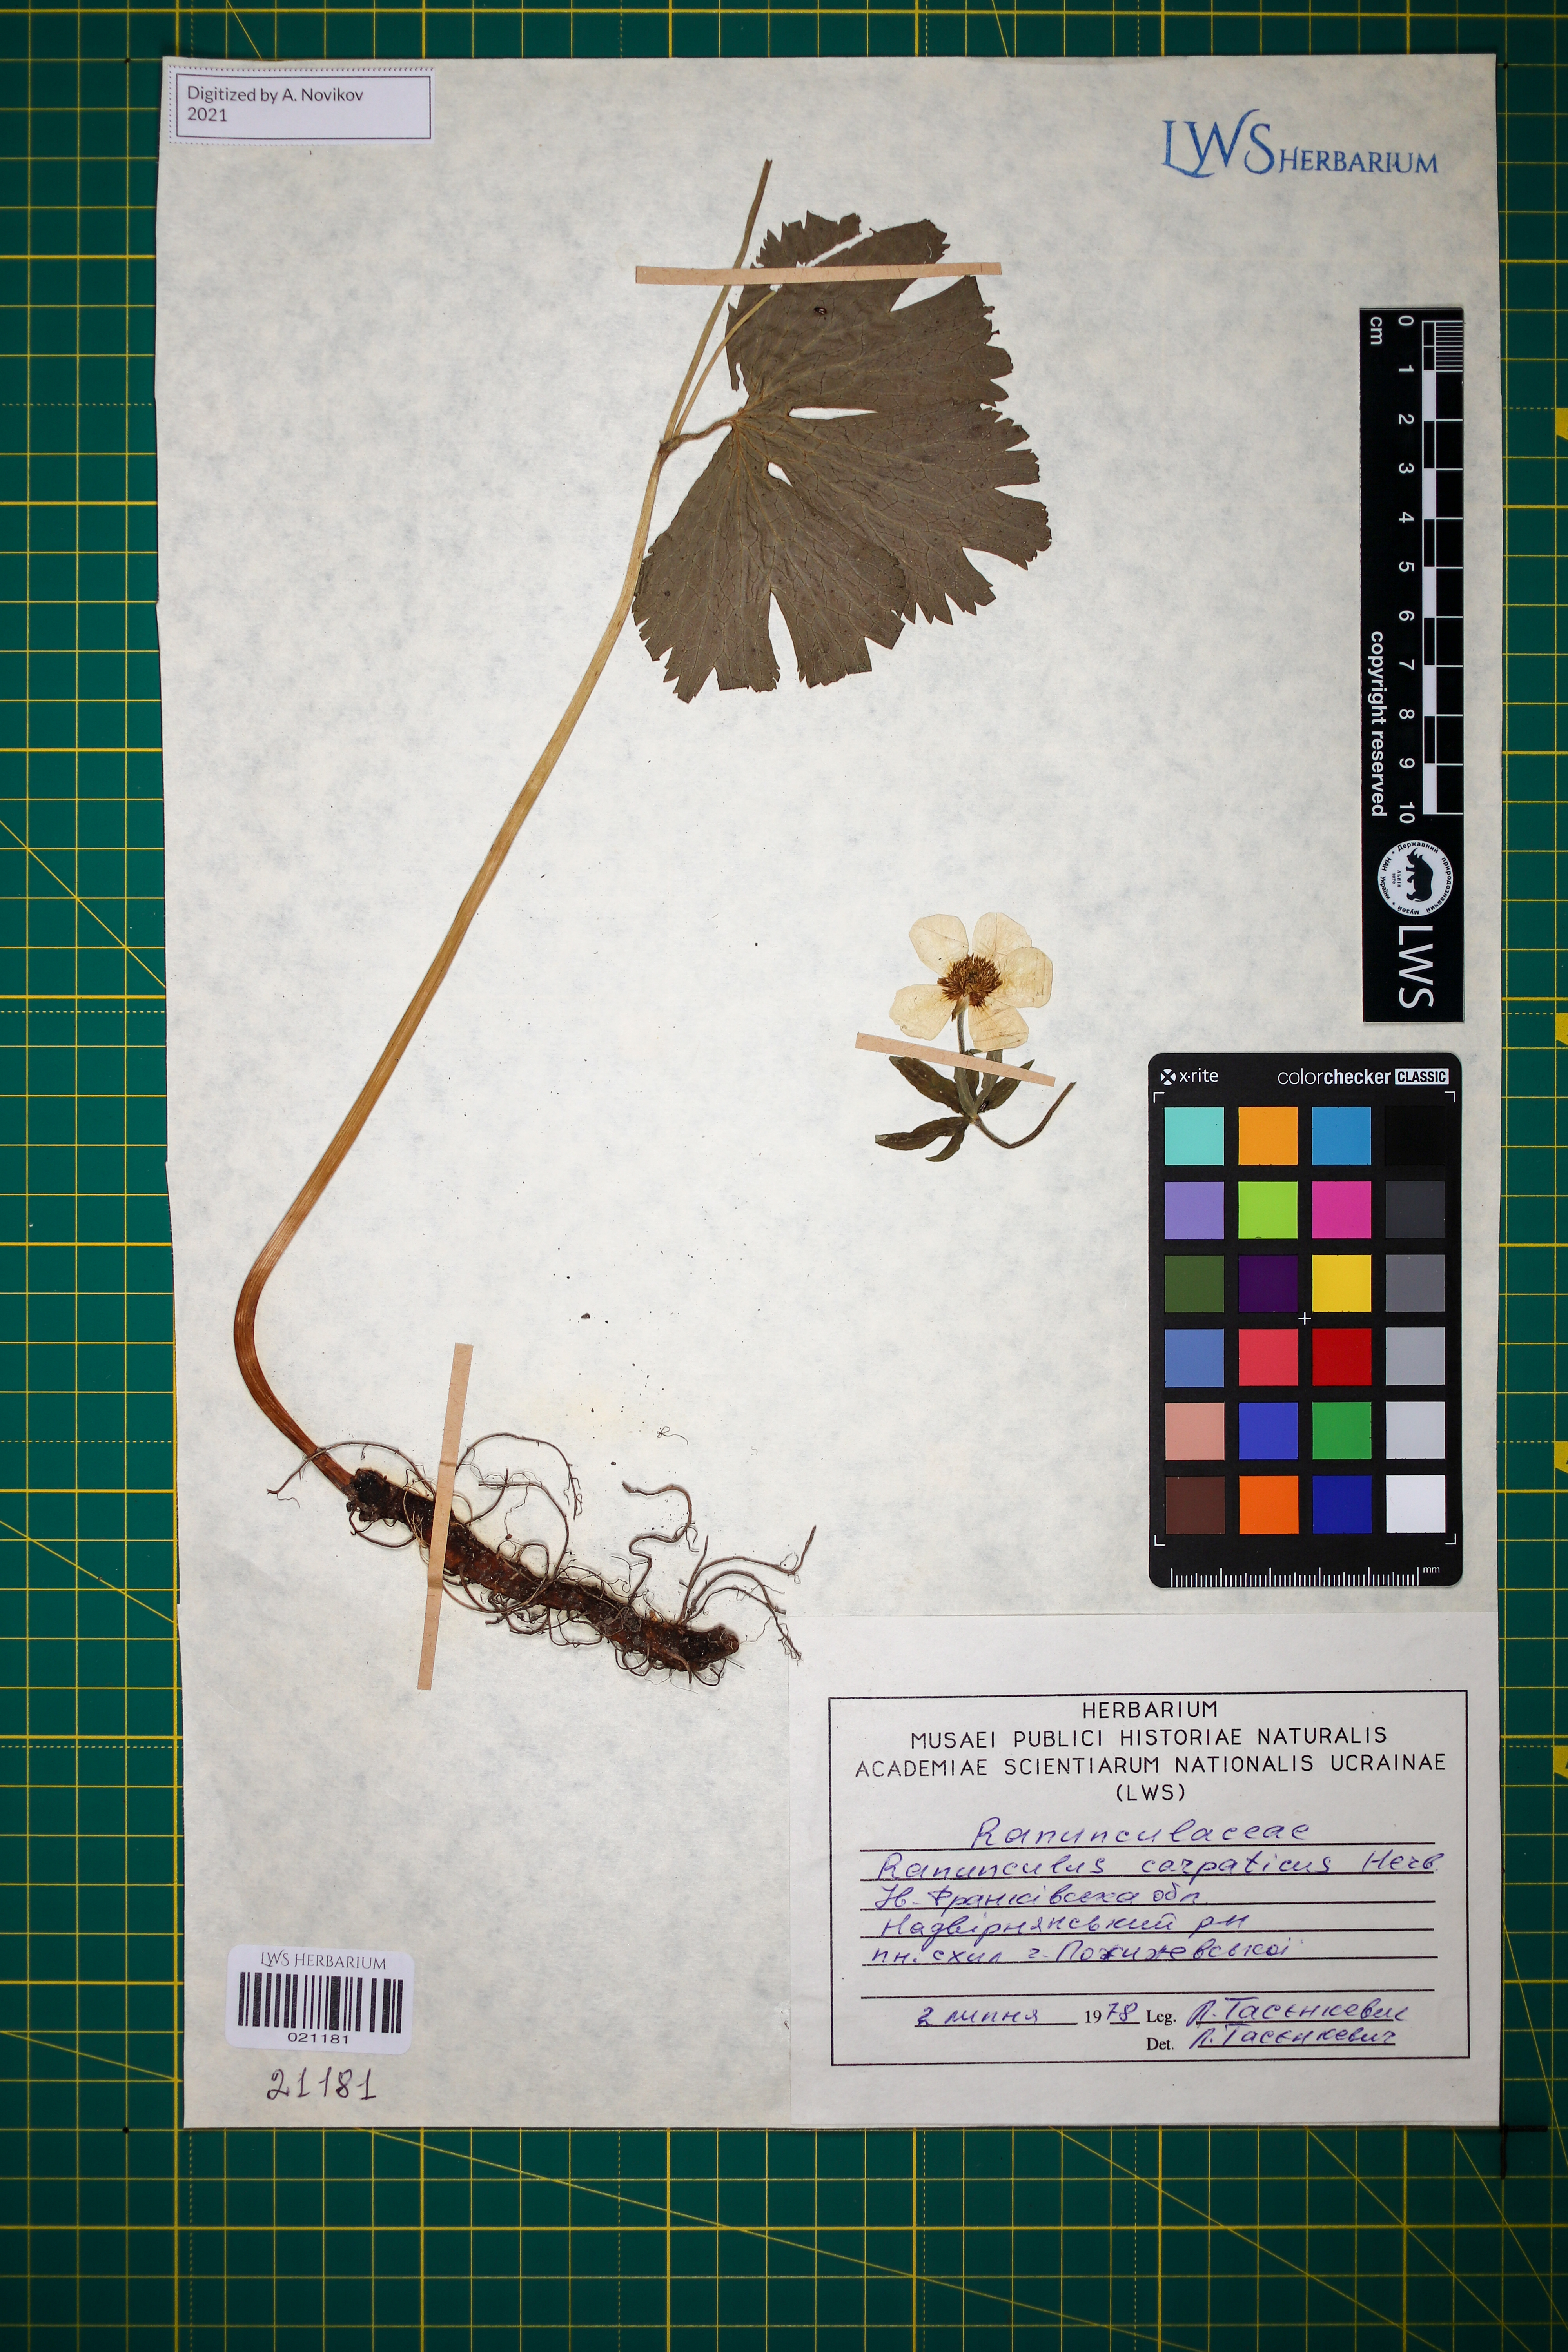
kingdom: Plantae
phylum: Tracheophyta
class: Magnoliopsida
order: Ranunculales
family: Ranunculaceae
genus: Ranunculus
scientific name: Ranunculus carpaticus
